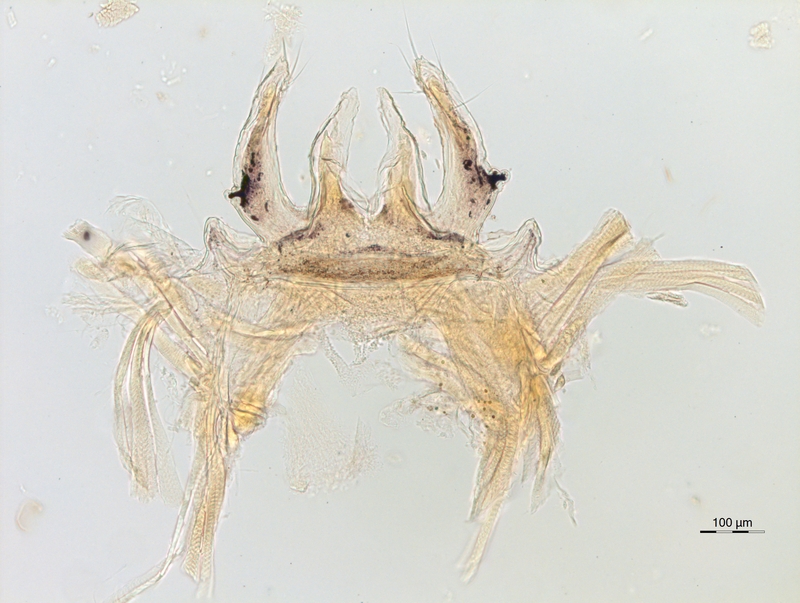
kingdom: Animalia
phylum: Arthropoda
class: Diplopoda
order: Chordeumatida
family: Anthroleucosomatidae
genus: Anamastigona
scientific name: Anamastigona hispidula
